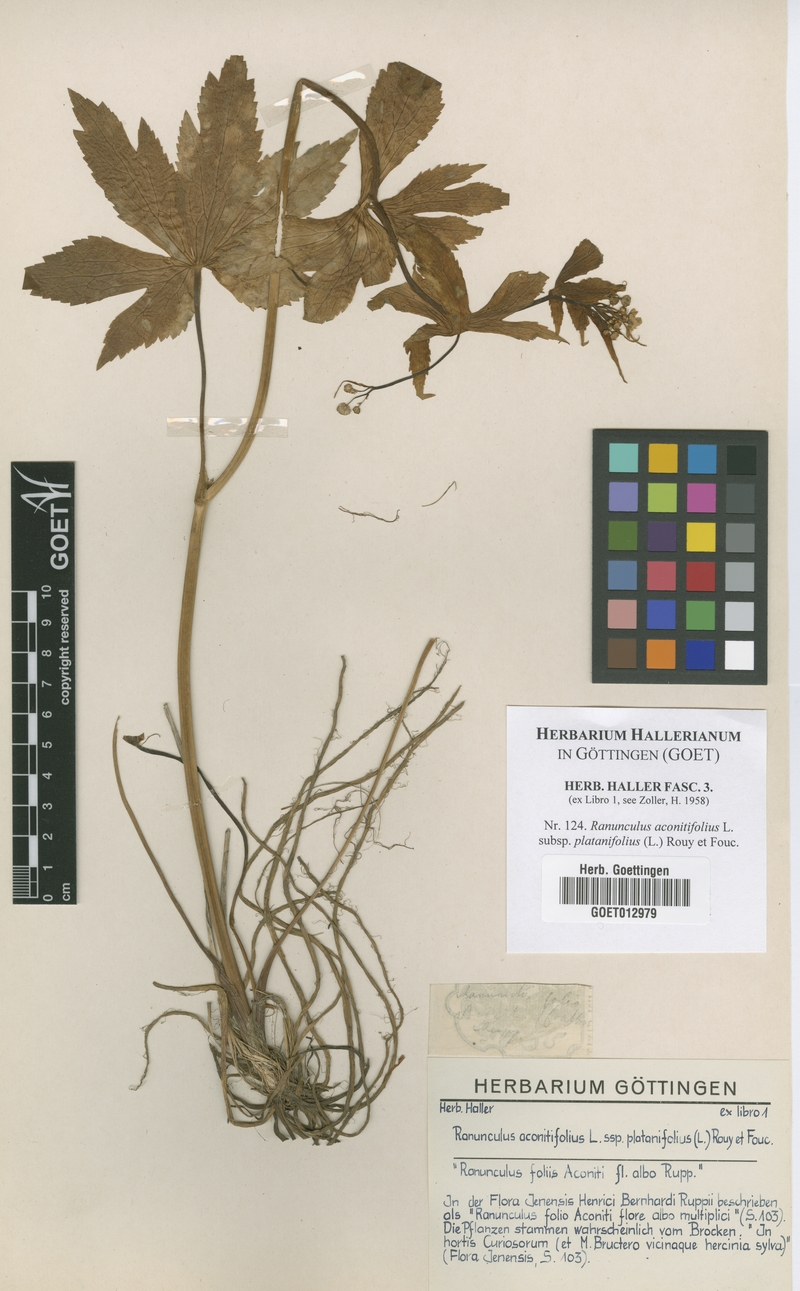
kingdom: Plantae
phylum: Tracheophyta
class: Magnoliopsida
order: Ranunculales
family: Ranunculaceae
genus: Ranunculus
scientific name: Ranunculus platanifolius
